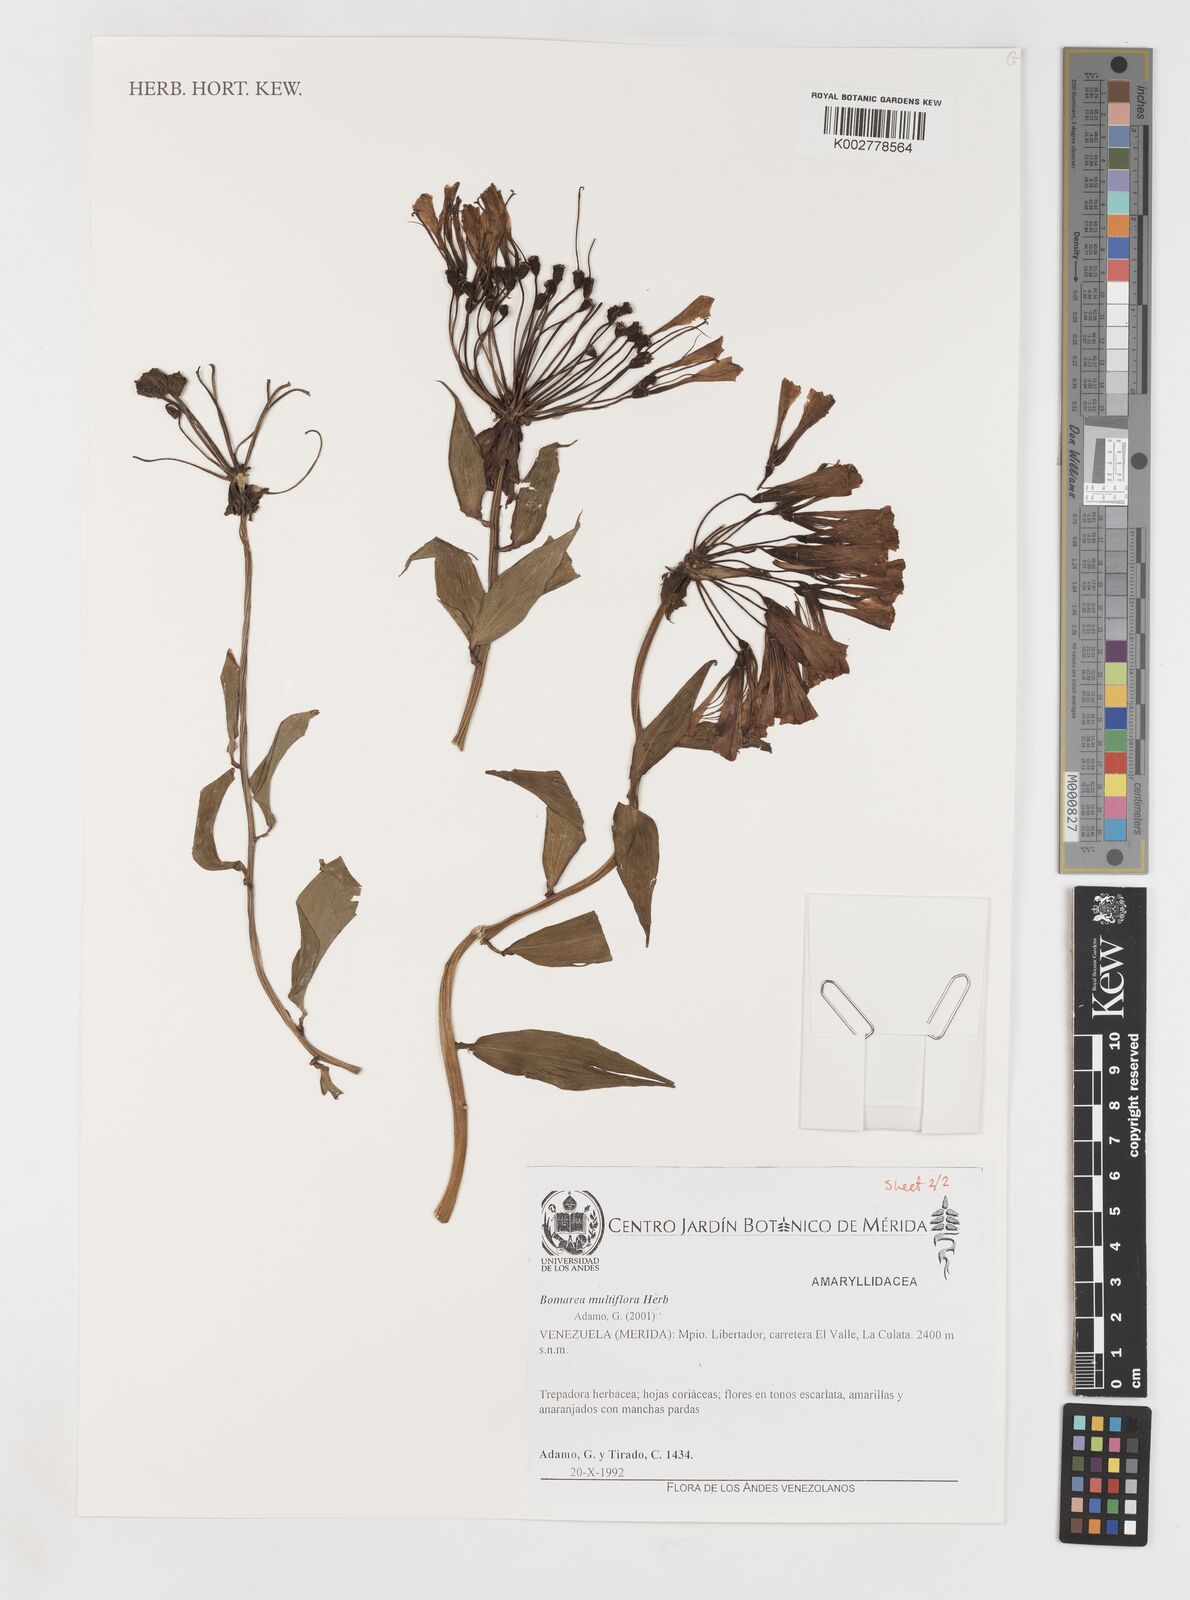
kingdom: Plantae
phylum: Tracheophyta
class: Liliopsida
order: Liliales
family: Alstroemeriaceae
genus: Bomarea
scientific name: Bomarea multiflora
